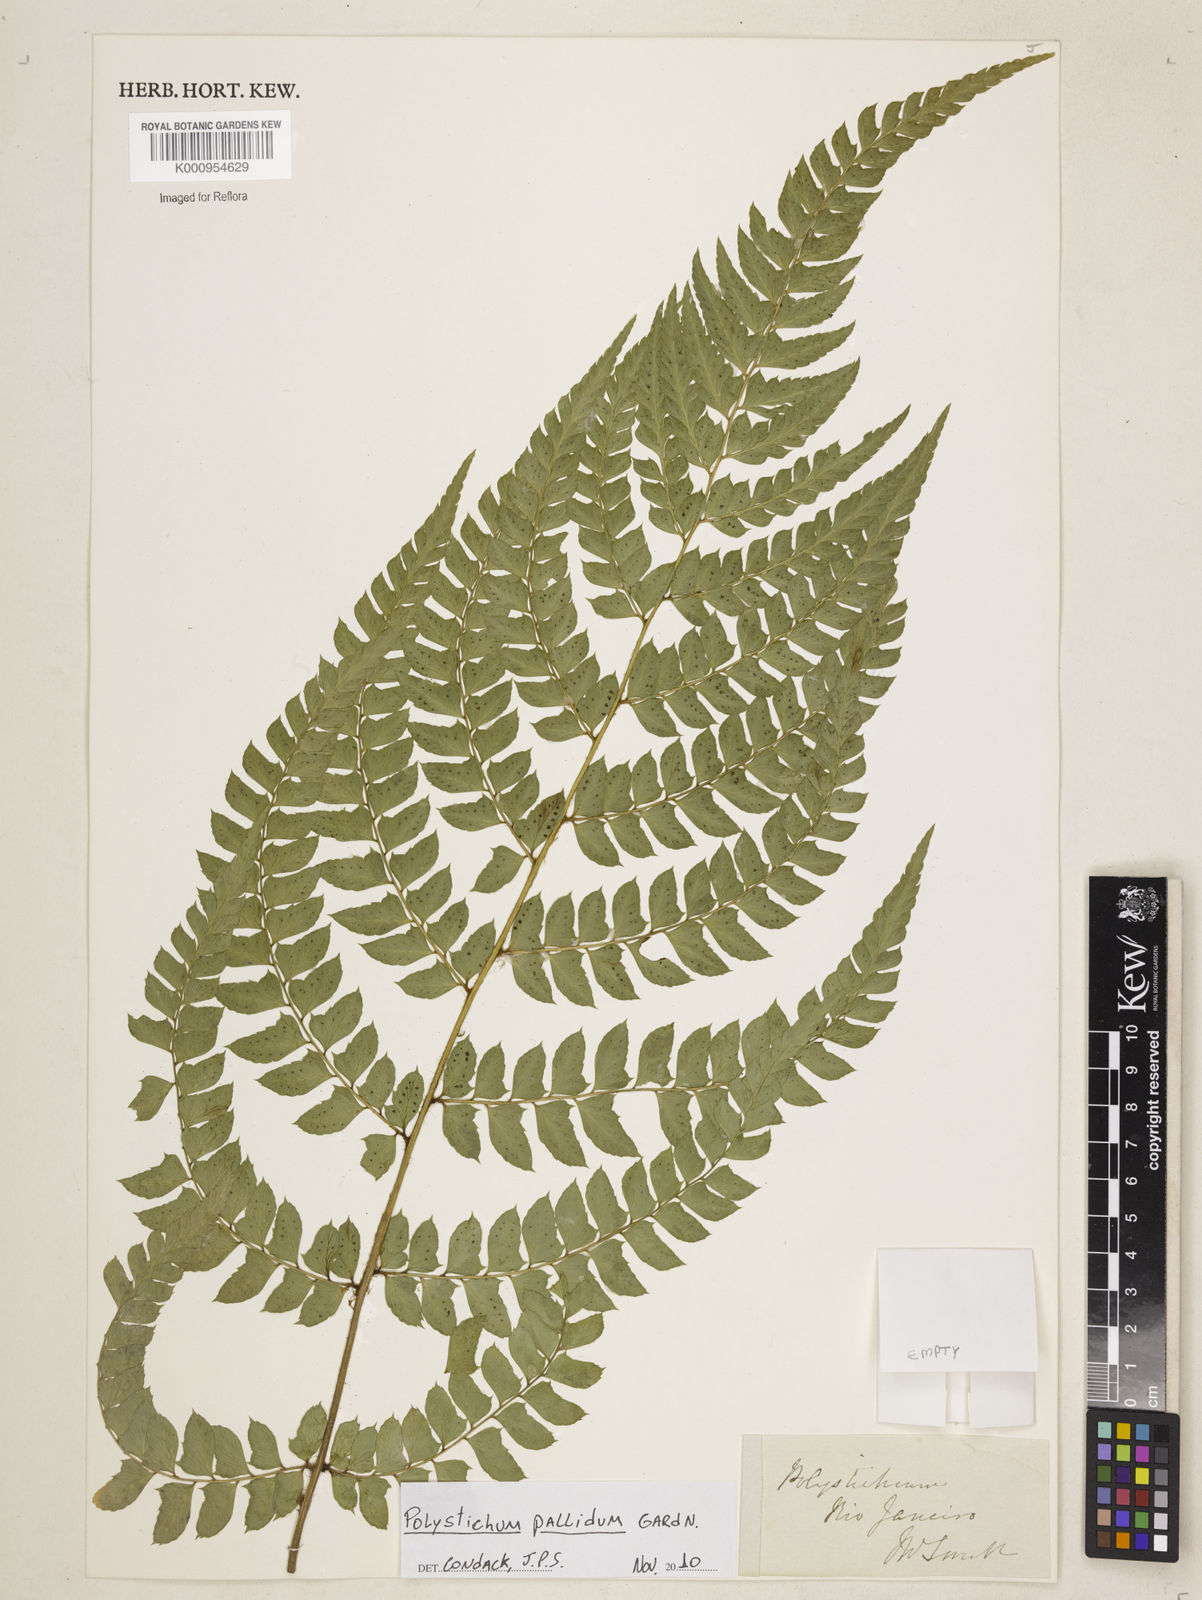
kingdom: Plantae
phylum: Tracheophyta
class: Polypodiopsida
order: Polypodiales
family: Dryopteridaceae
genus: Polystichum
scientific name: Polystichum
